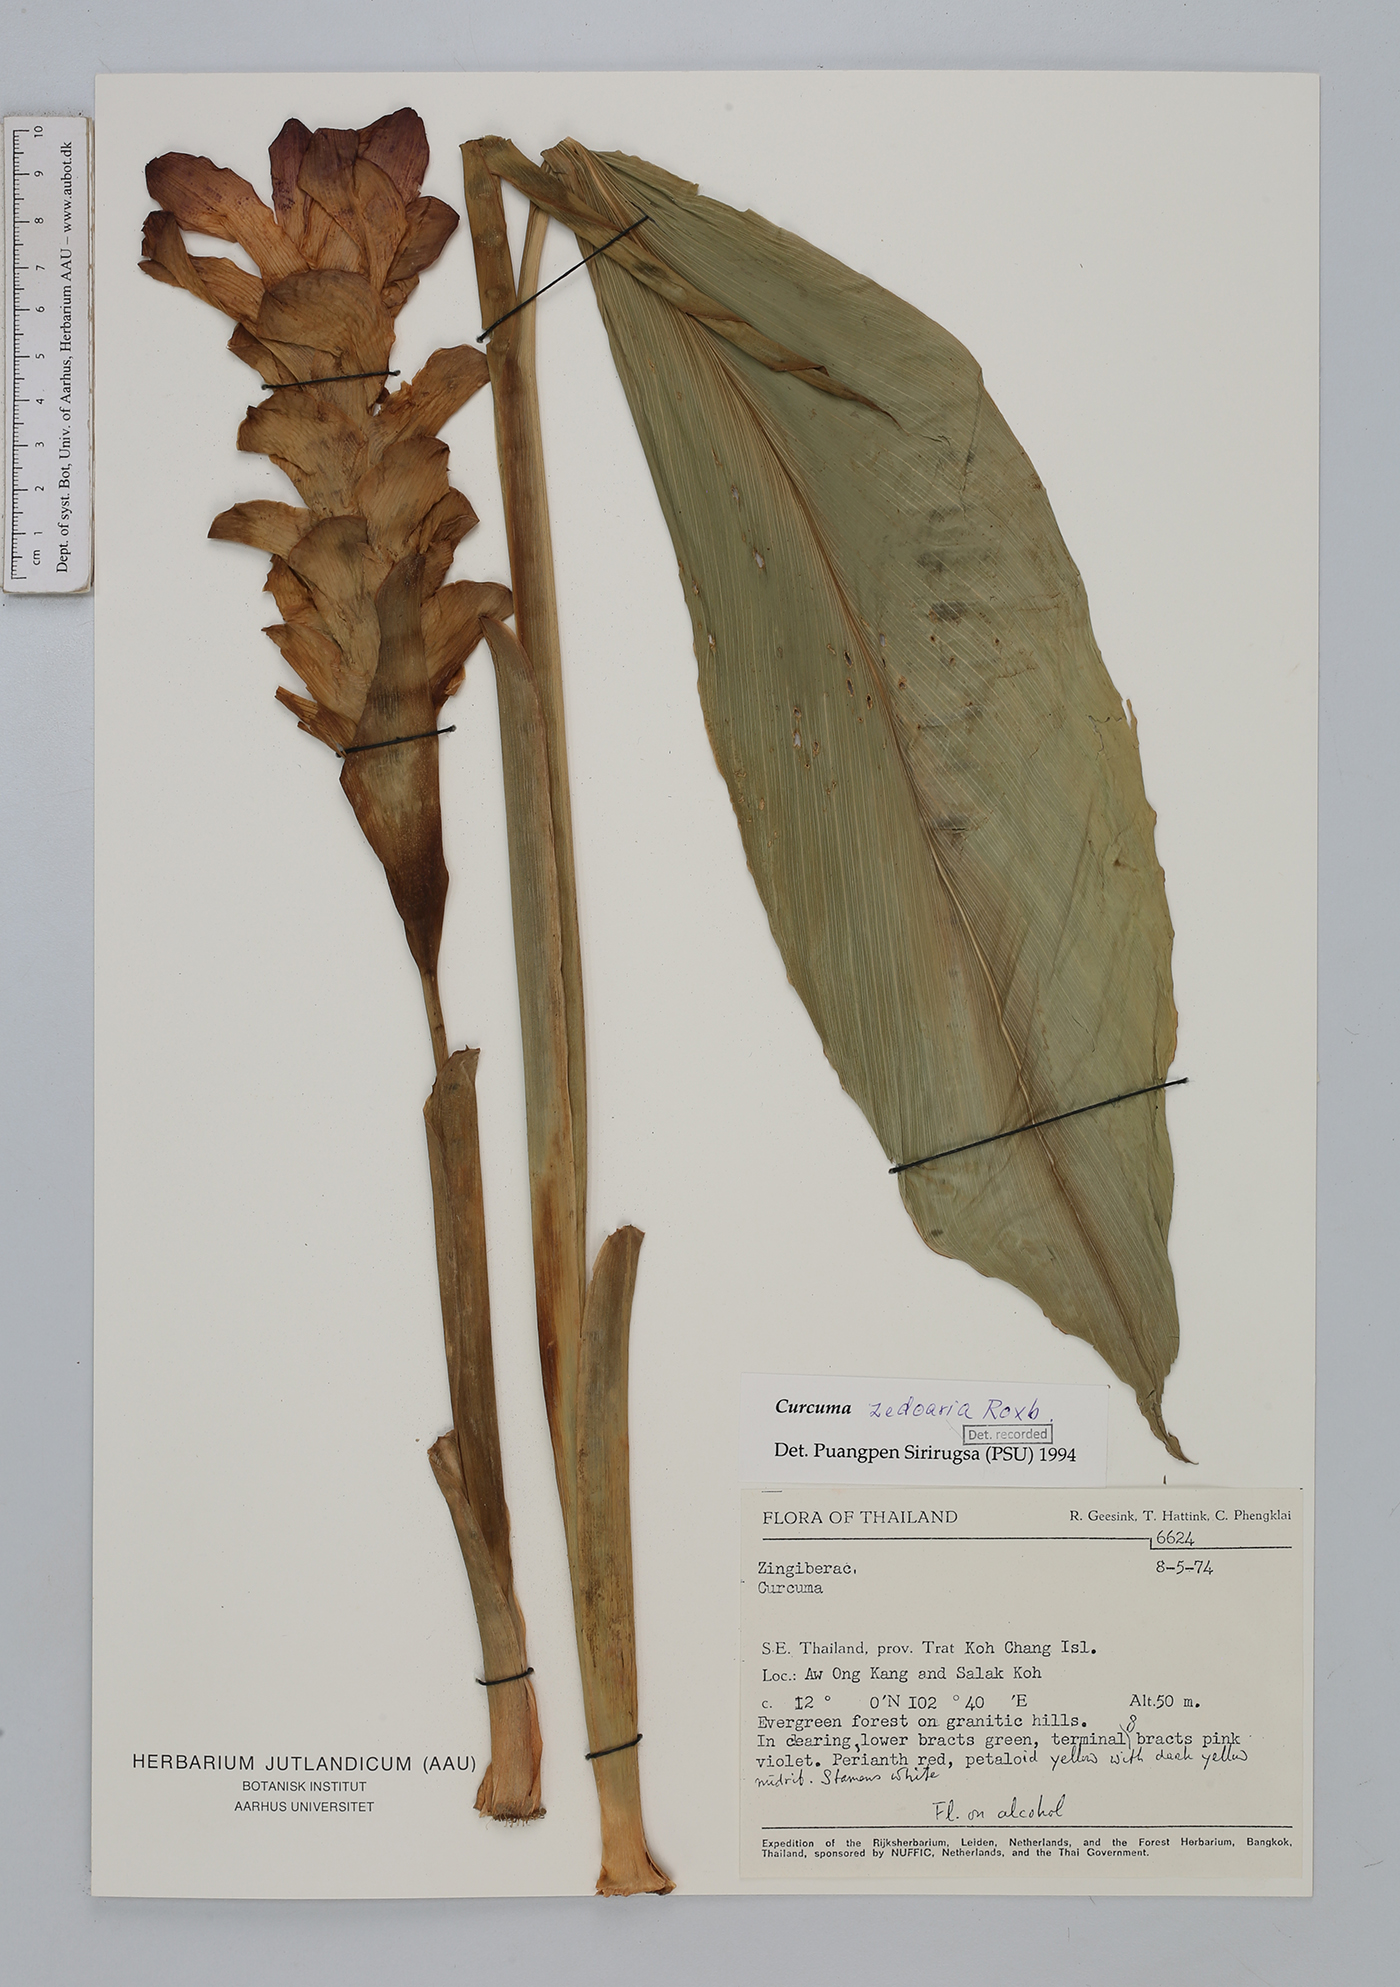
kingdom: Plantae
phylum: Tracheophyta
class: Liliopsida
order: Zingiberales
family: Zingiberaceae
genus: Curcuma
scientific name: Curcuma zedoaria
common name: Zedoary
